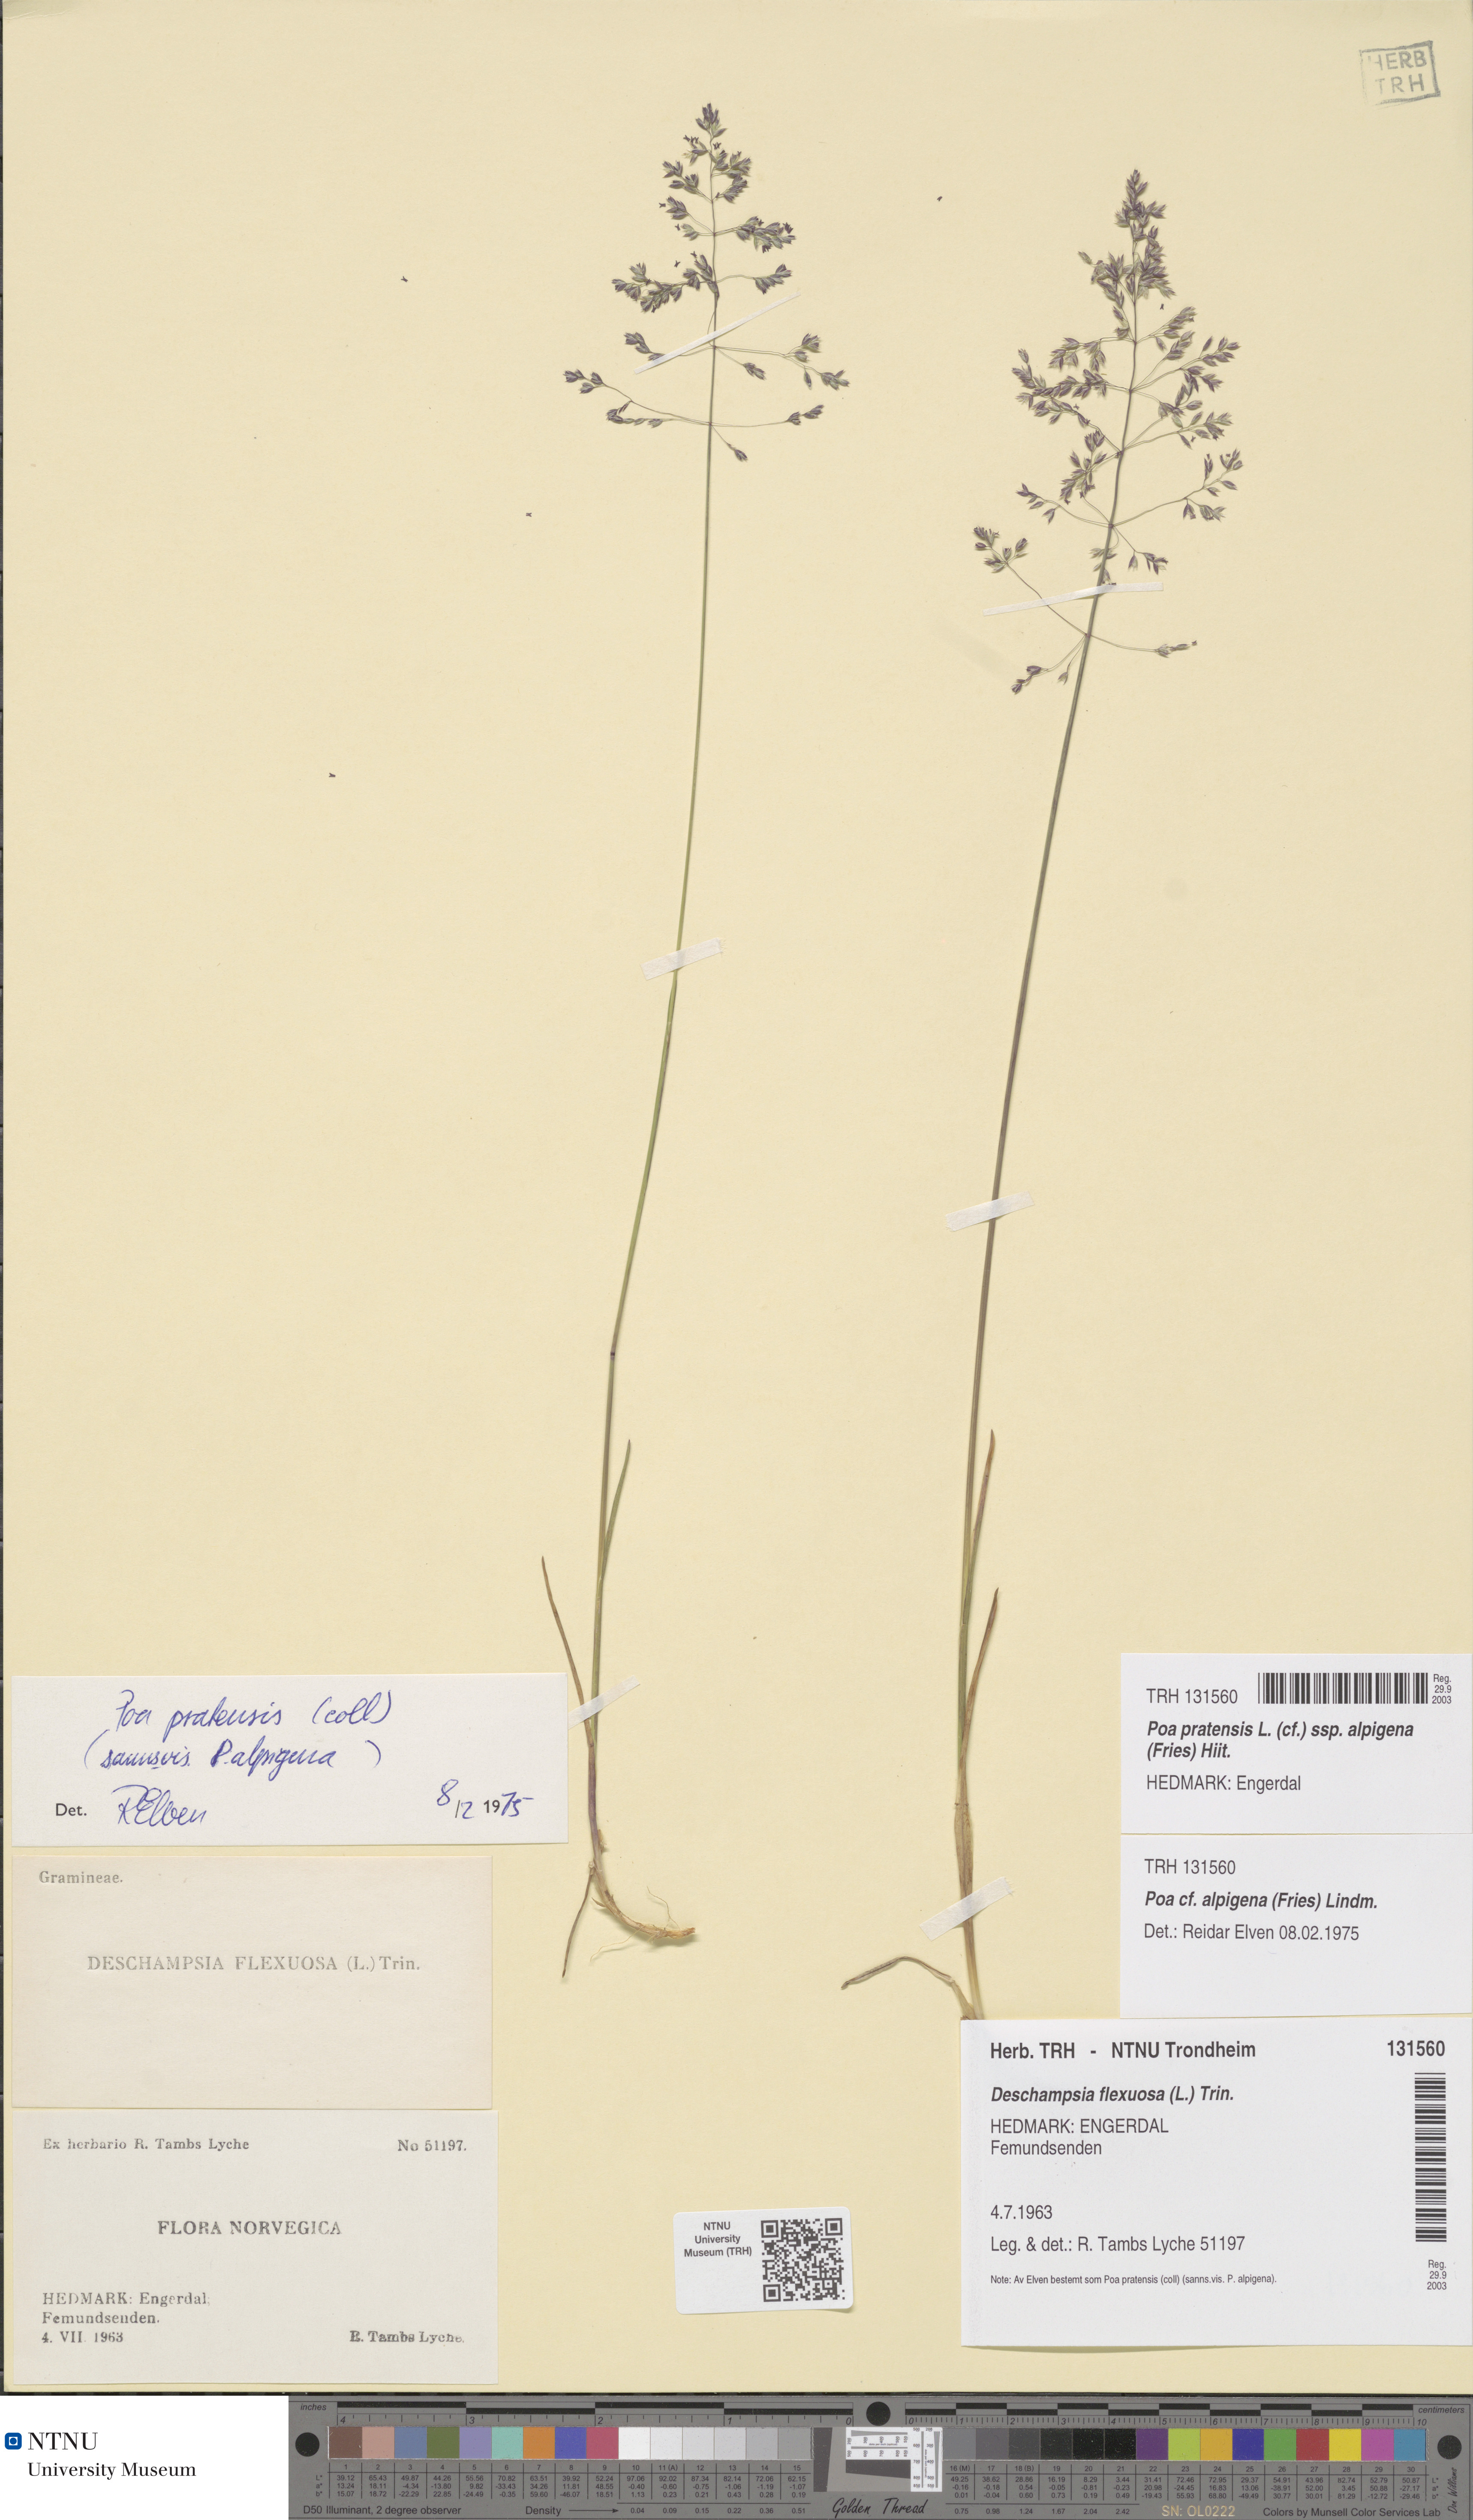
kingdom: Plantae
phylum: Tracheophyta
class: Liliopsida
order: Poales
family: Poaceae
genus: Poa
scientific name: Poa alpigena
